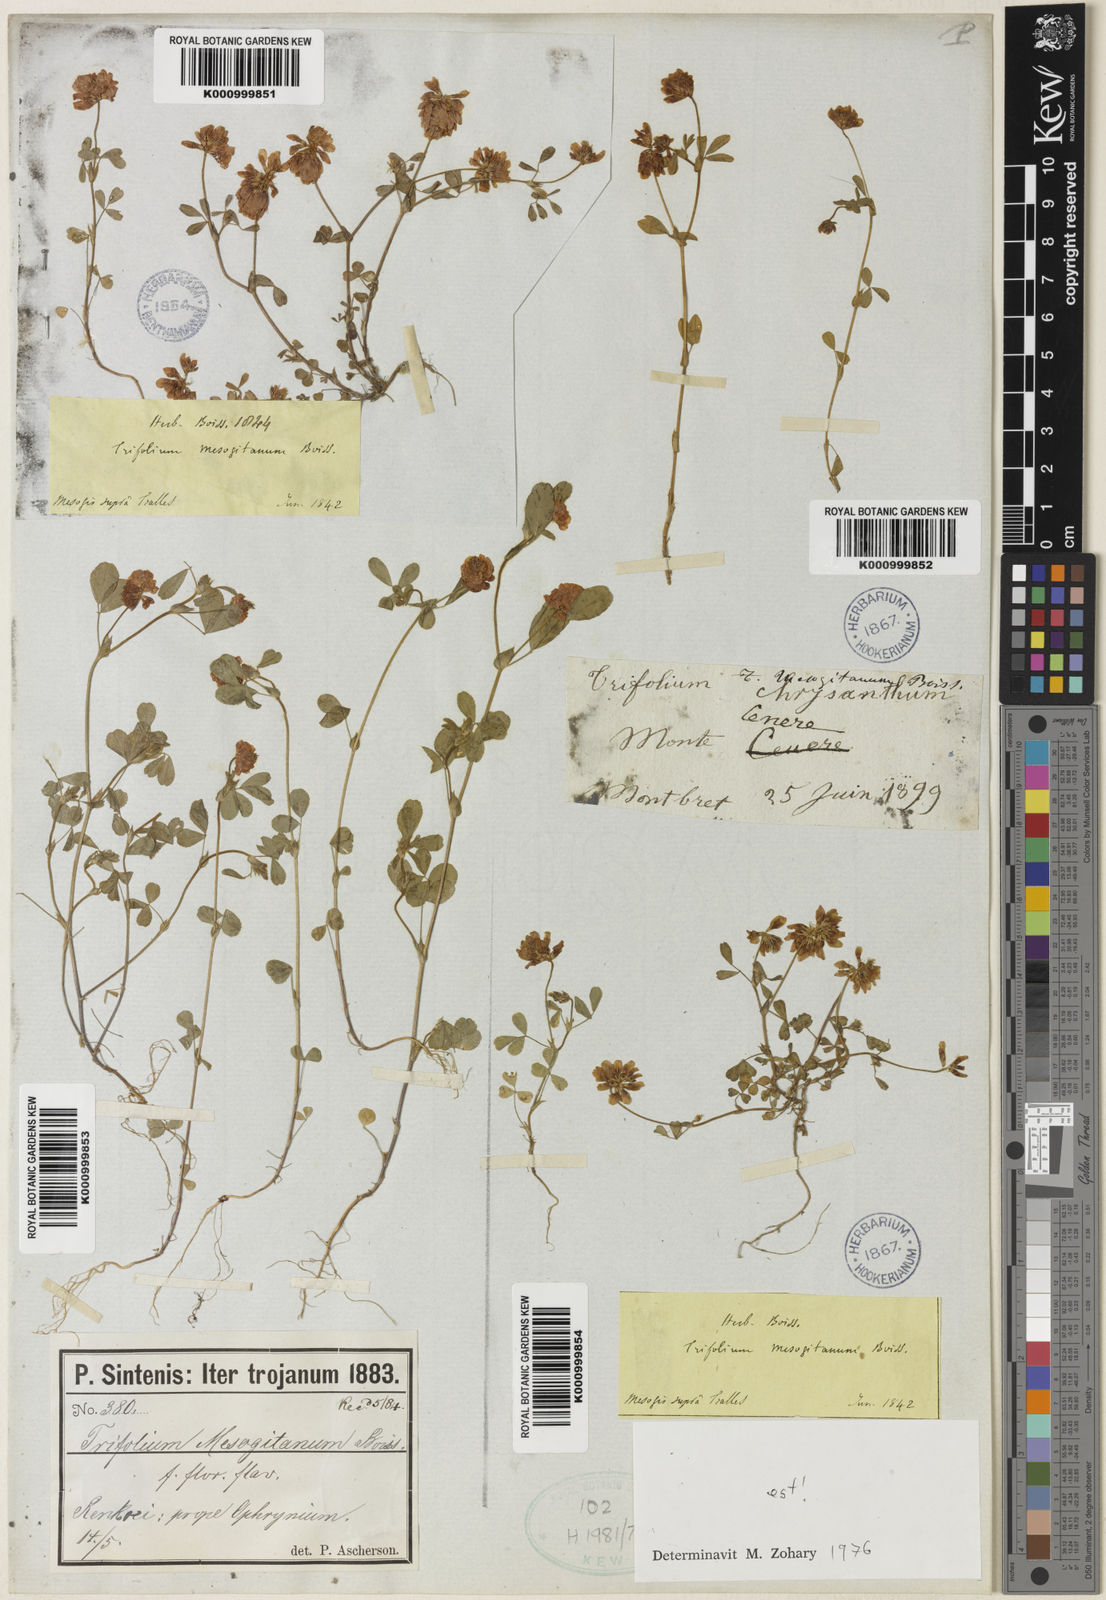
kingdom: Plantae
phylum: Tracheophyta
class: Magnoliopsida
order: Fabales
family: Fabaceae
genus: Trifolium
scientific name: Trifolium mesogitanum
